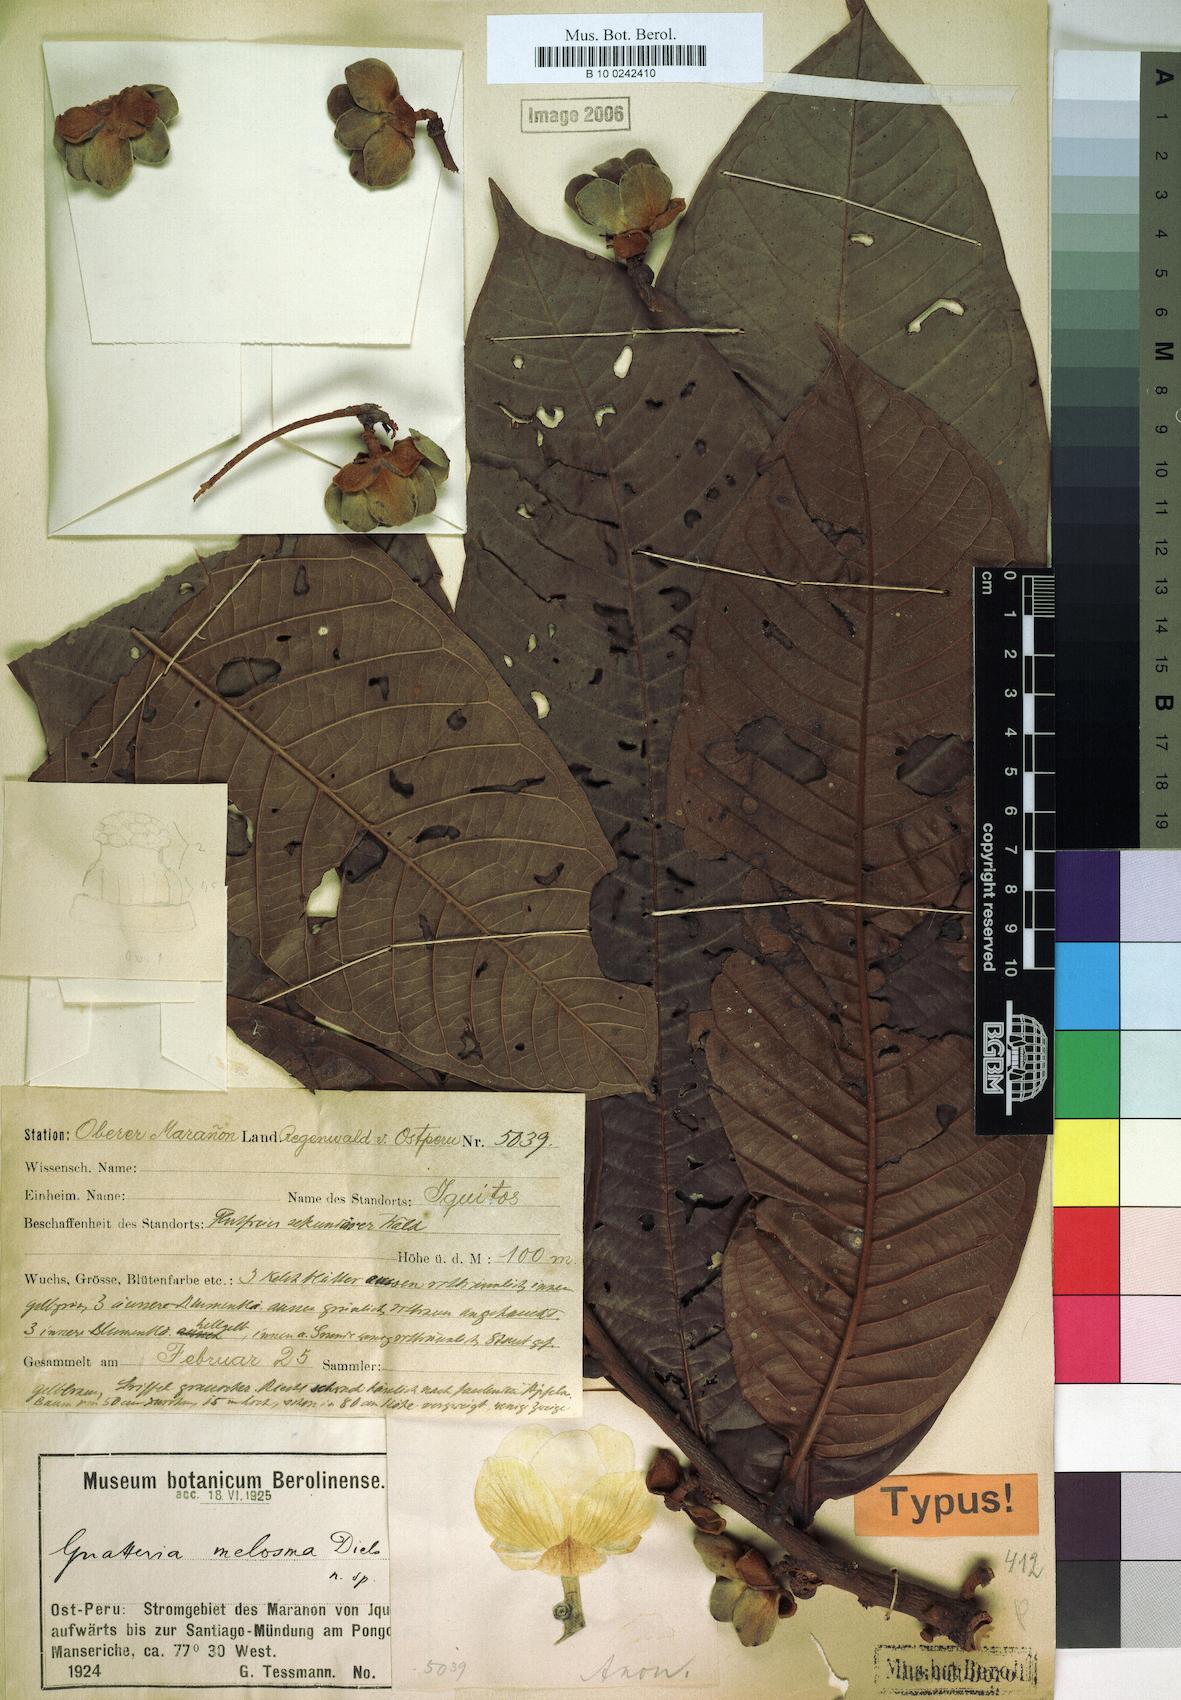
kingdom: Plantae
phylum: Tracheophyta
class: Magnoliopsida
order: Magnoliales
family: Annonaceae
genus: Guatteria
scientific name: Guatteria megalophylla
